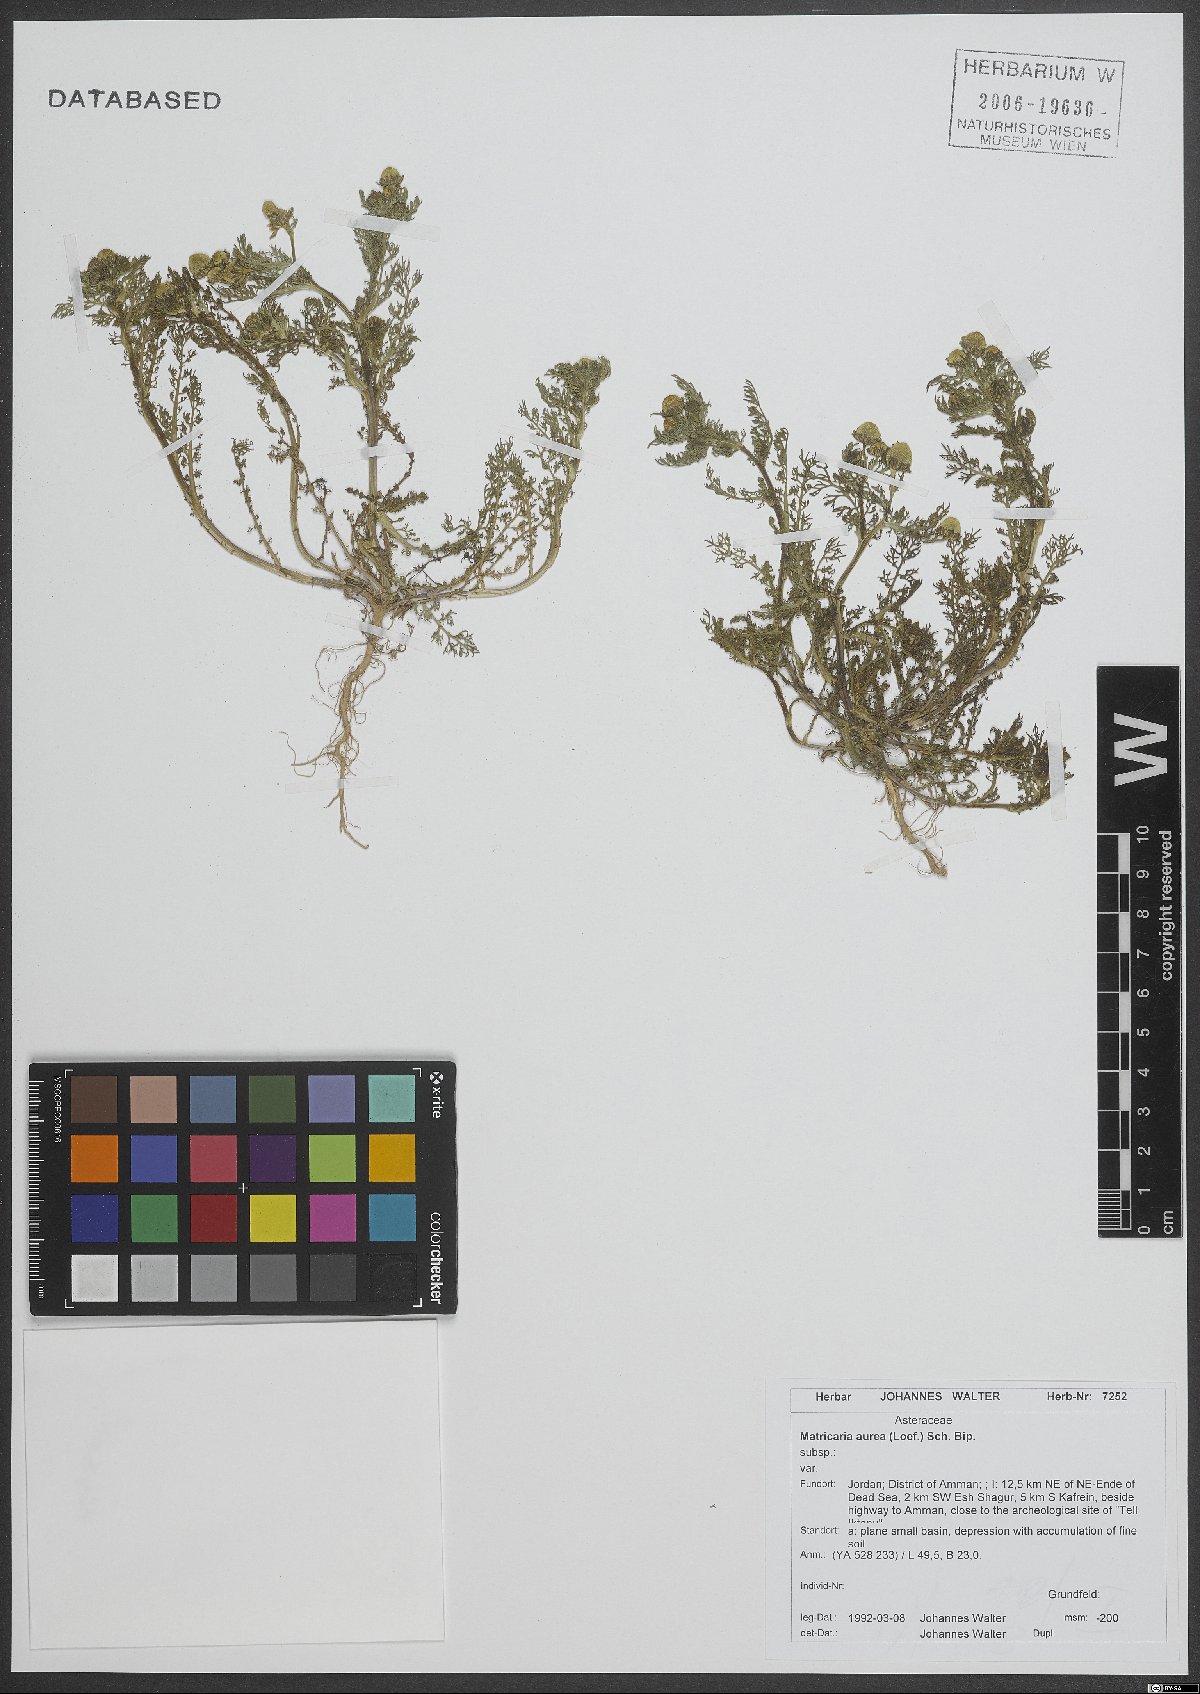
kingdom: Plantae
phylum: Tracheophyta
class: Magnoliopsida
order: Asterales
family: Asteraceae
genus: Matricaria
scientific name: Matricaria aurea
